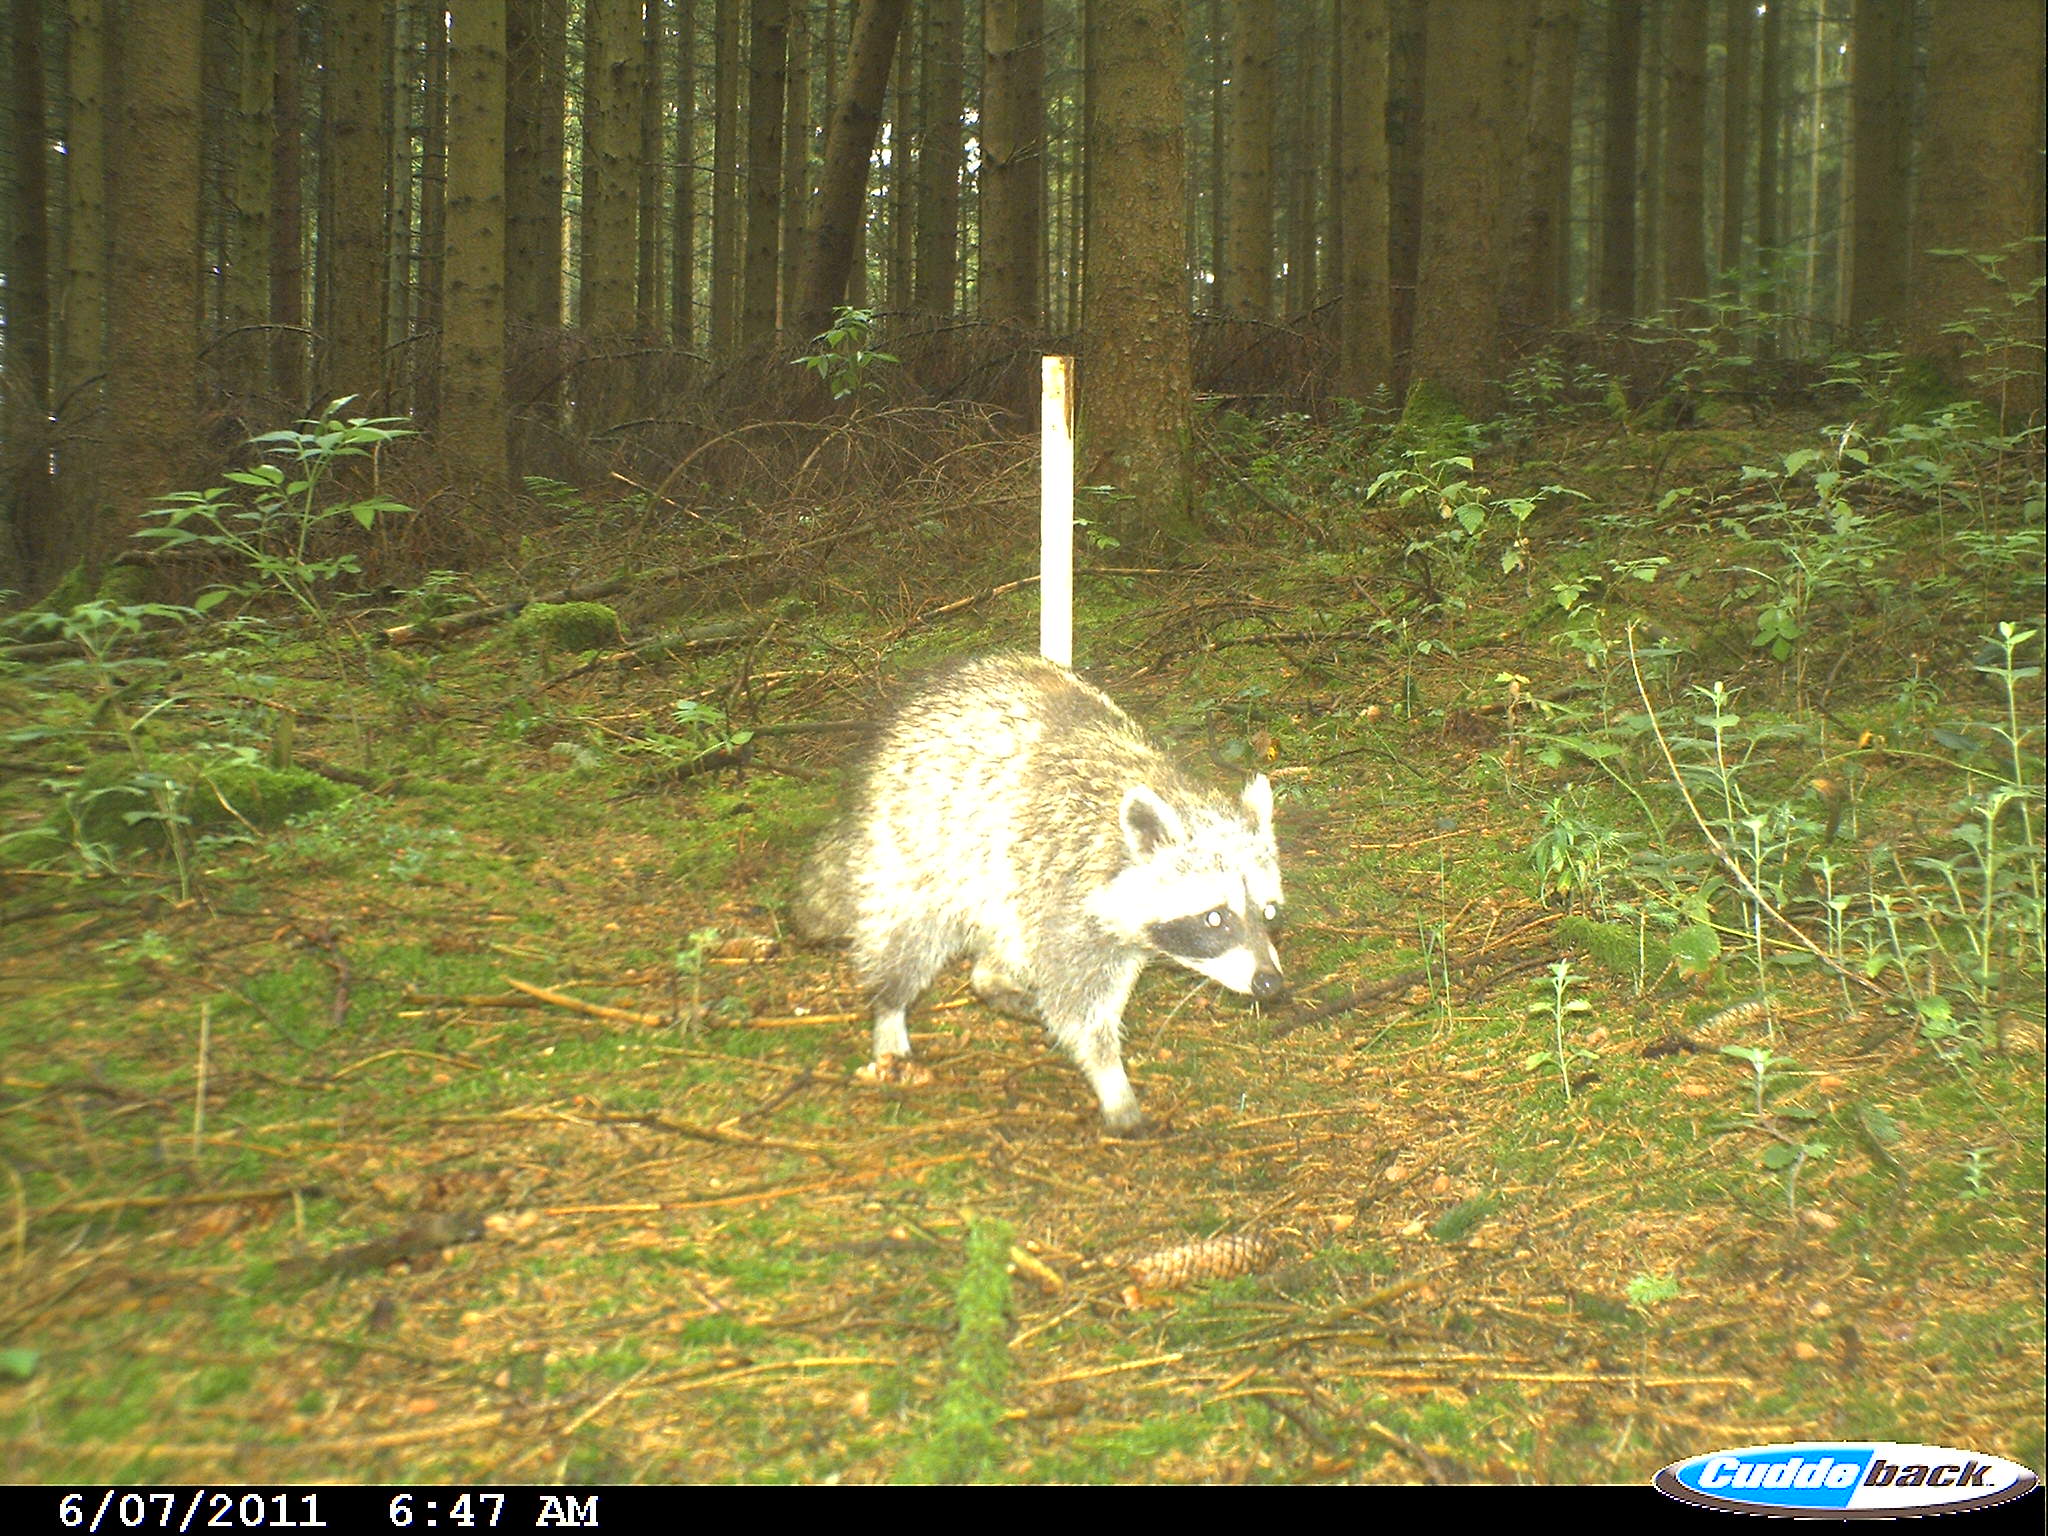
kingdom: Animalia
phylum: Chordata
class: Mammalia
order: Carnivora
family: Procyonidae
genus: Procyon
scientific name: Procyon lotor
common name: Raccoon
